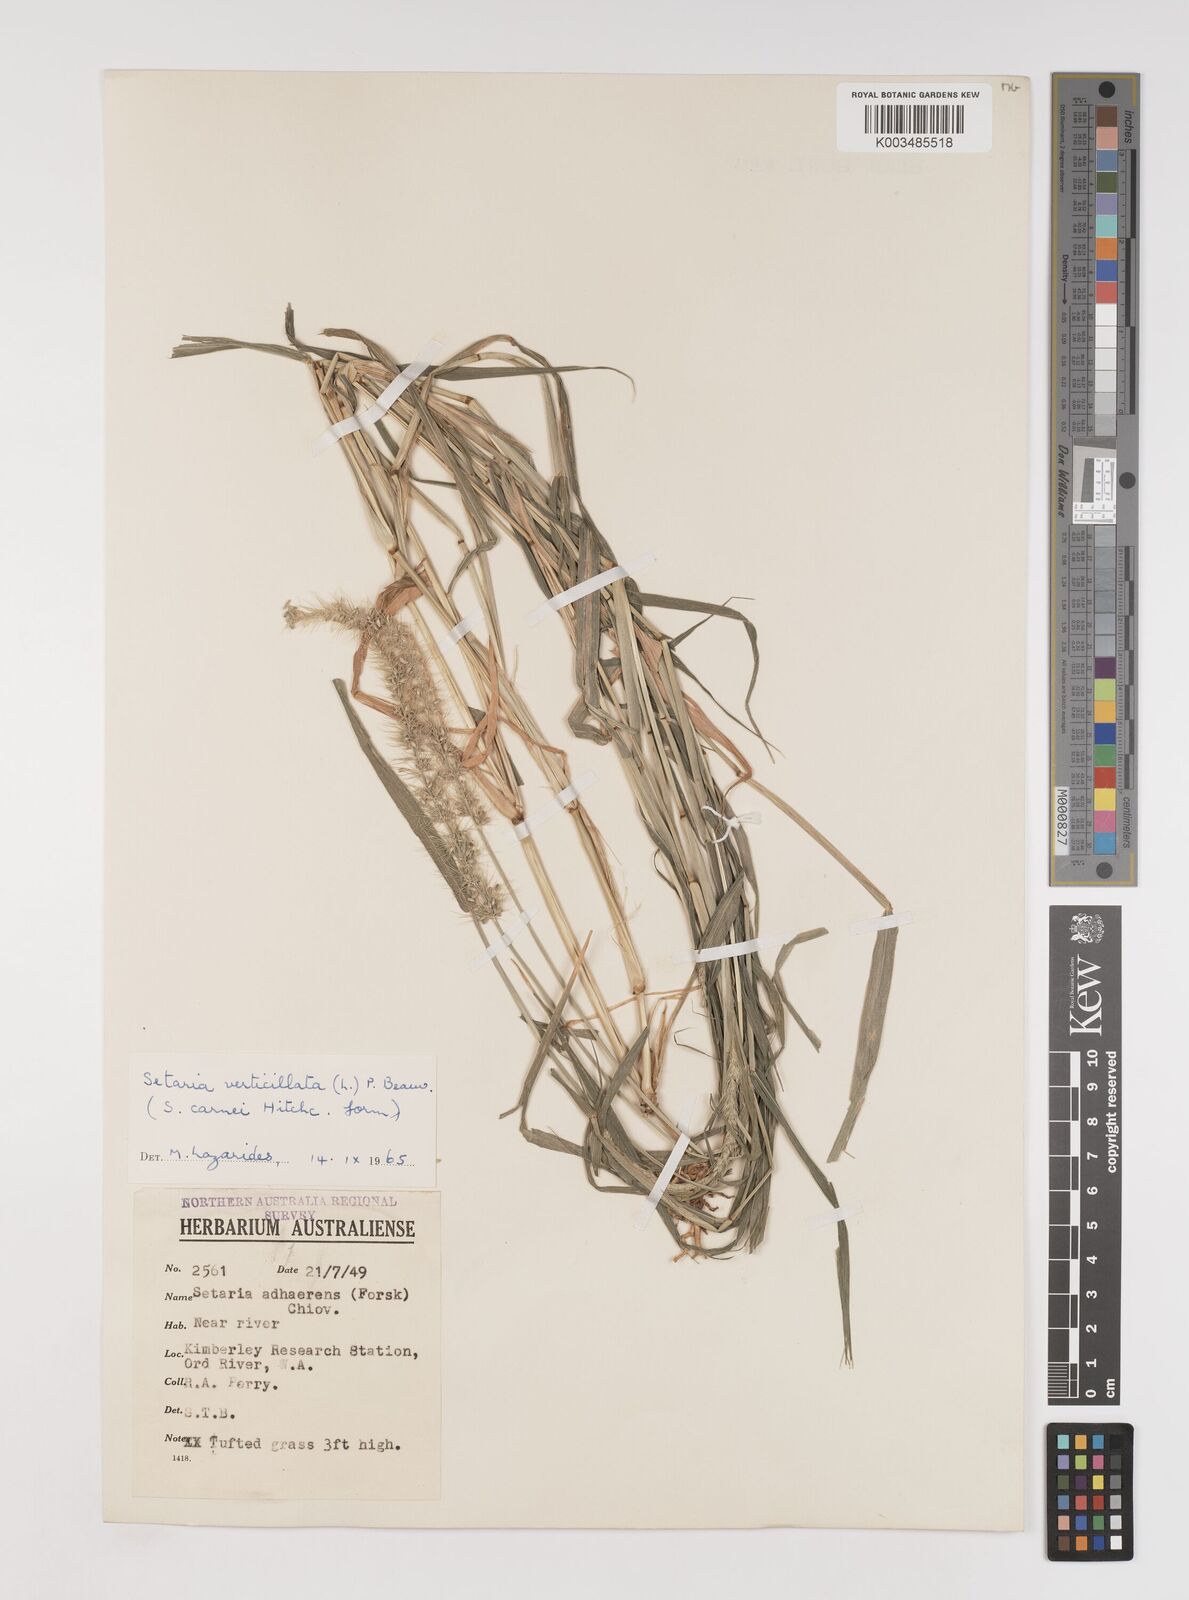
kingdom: Plantae
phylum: Tracheophyta
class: Liliopsida
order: Poales
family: Poaceae
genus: Setaria
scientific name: Setaria verticillata
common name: Hooked bristlegrass
